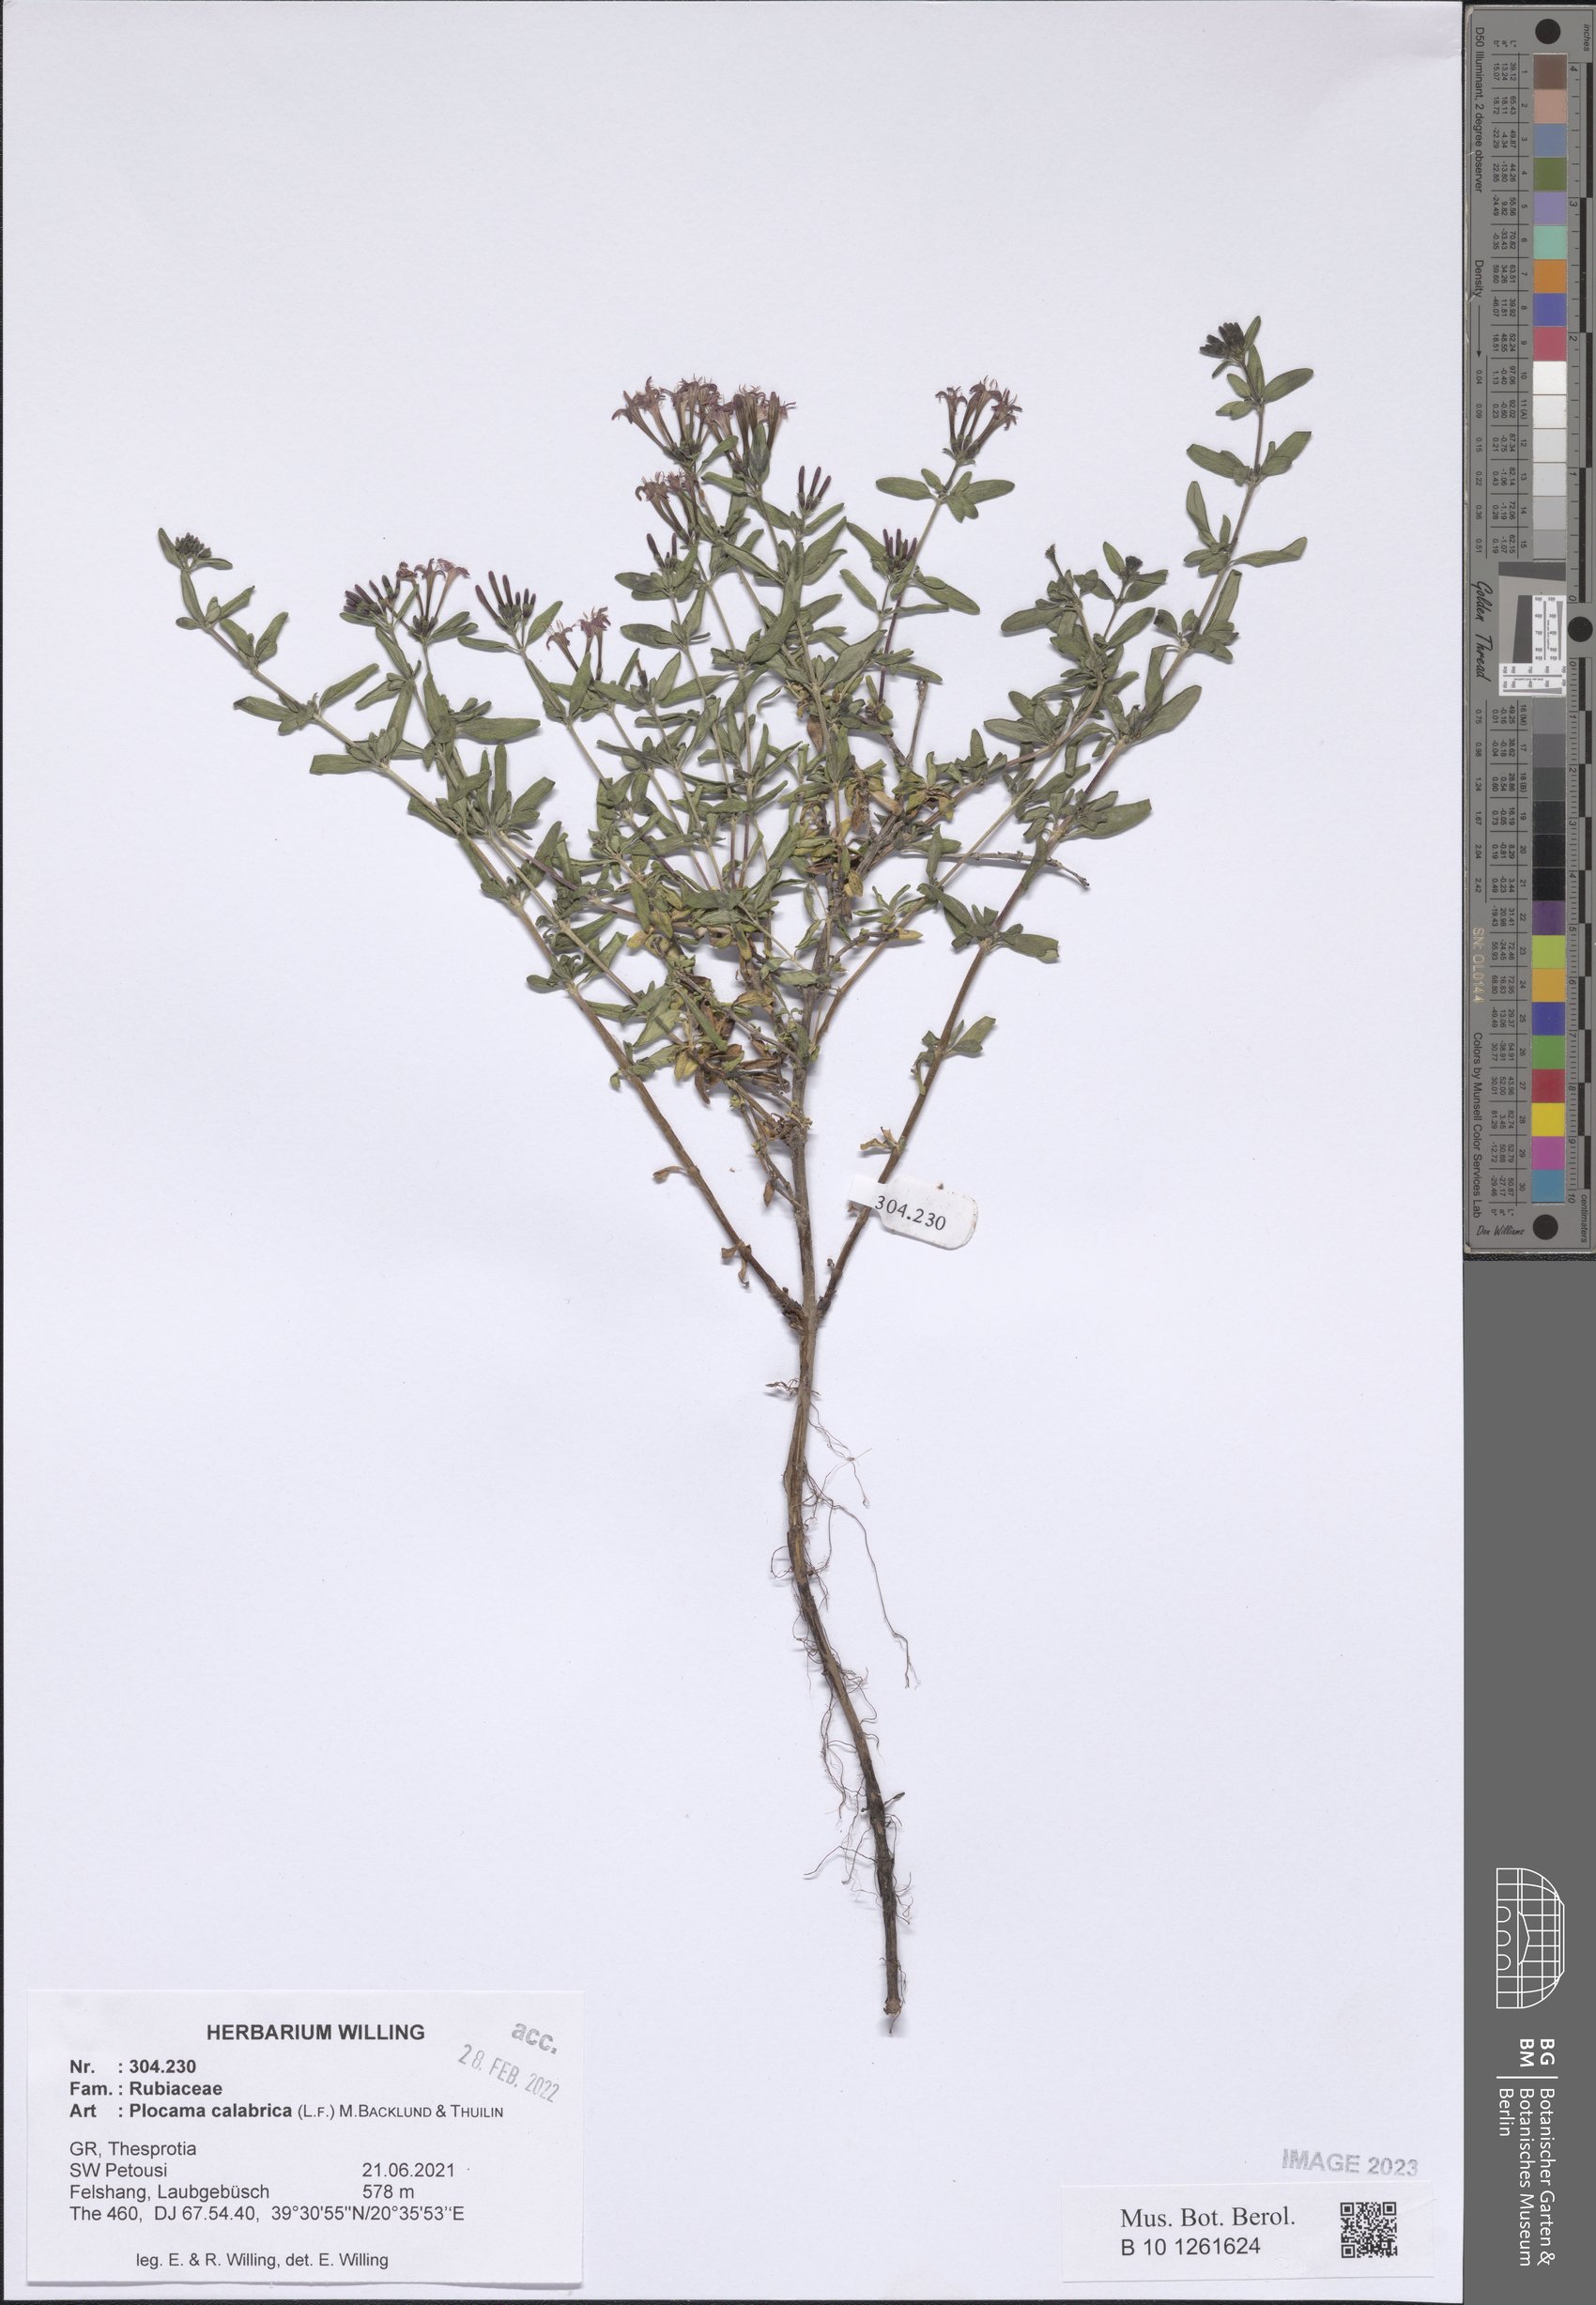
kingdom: Plantae
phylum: Tracheophyta
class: Magnoliopsida
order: Gentianales
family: Rubiaceae
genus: Plocama
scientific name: Plocama calabrica
